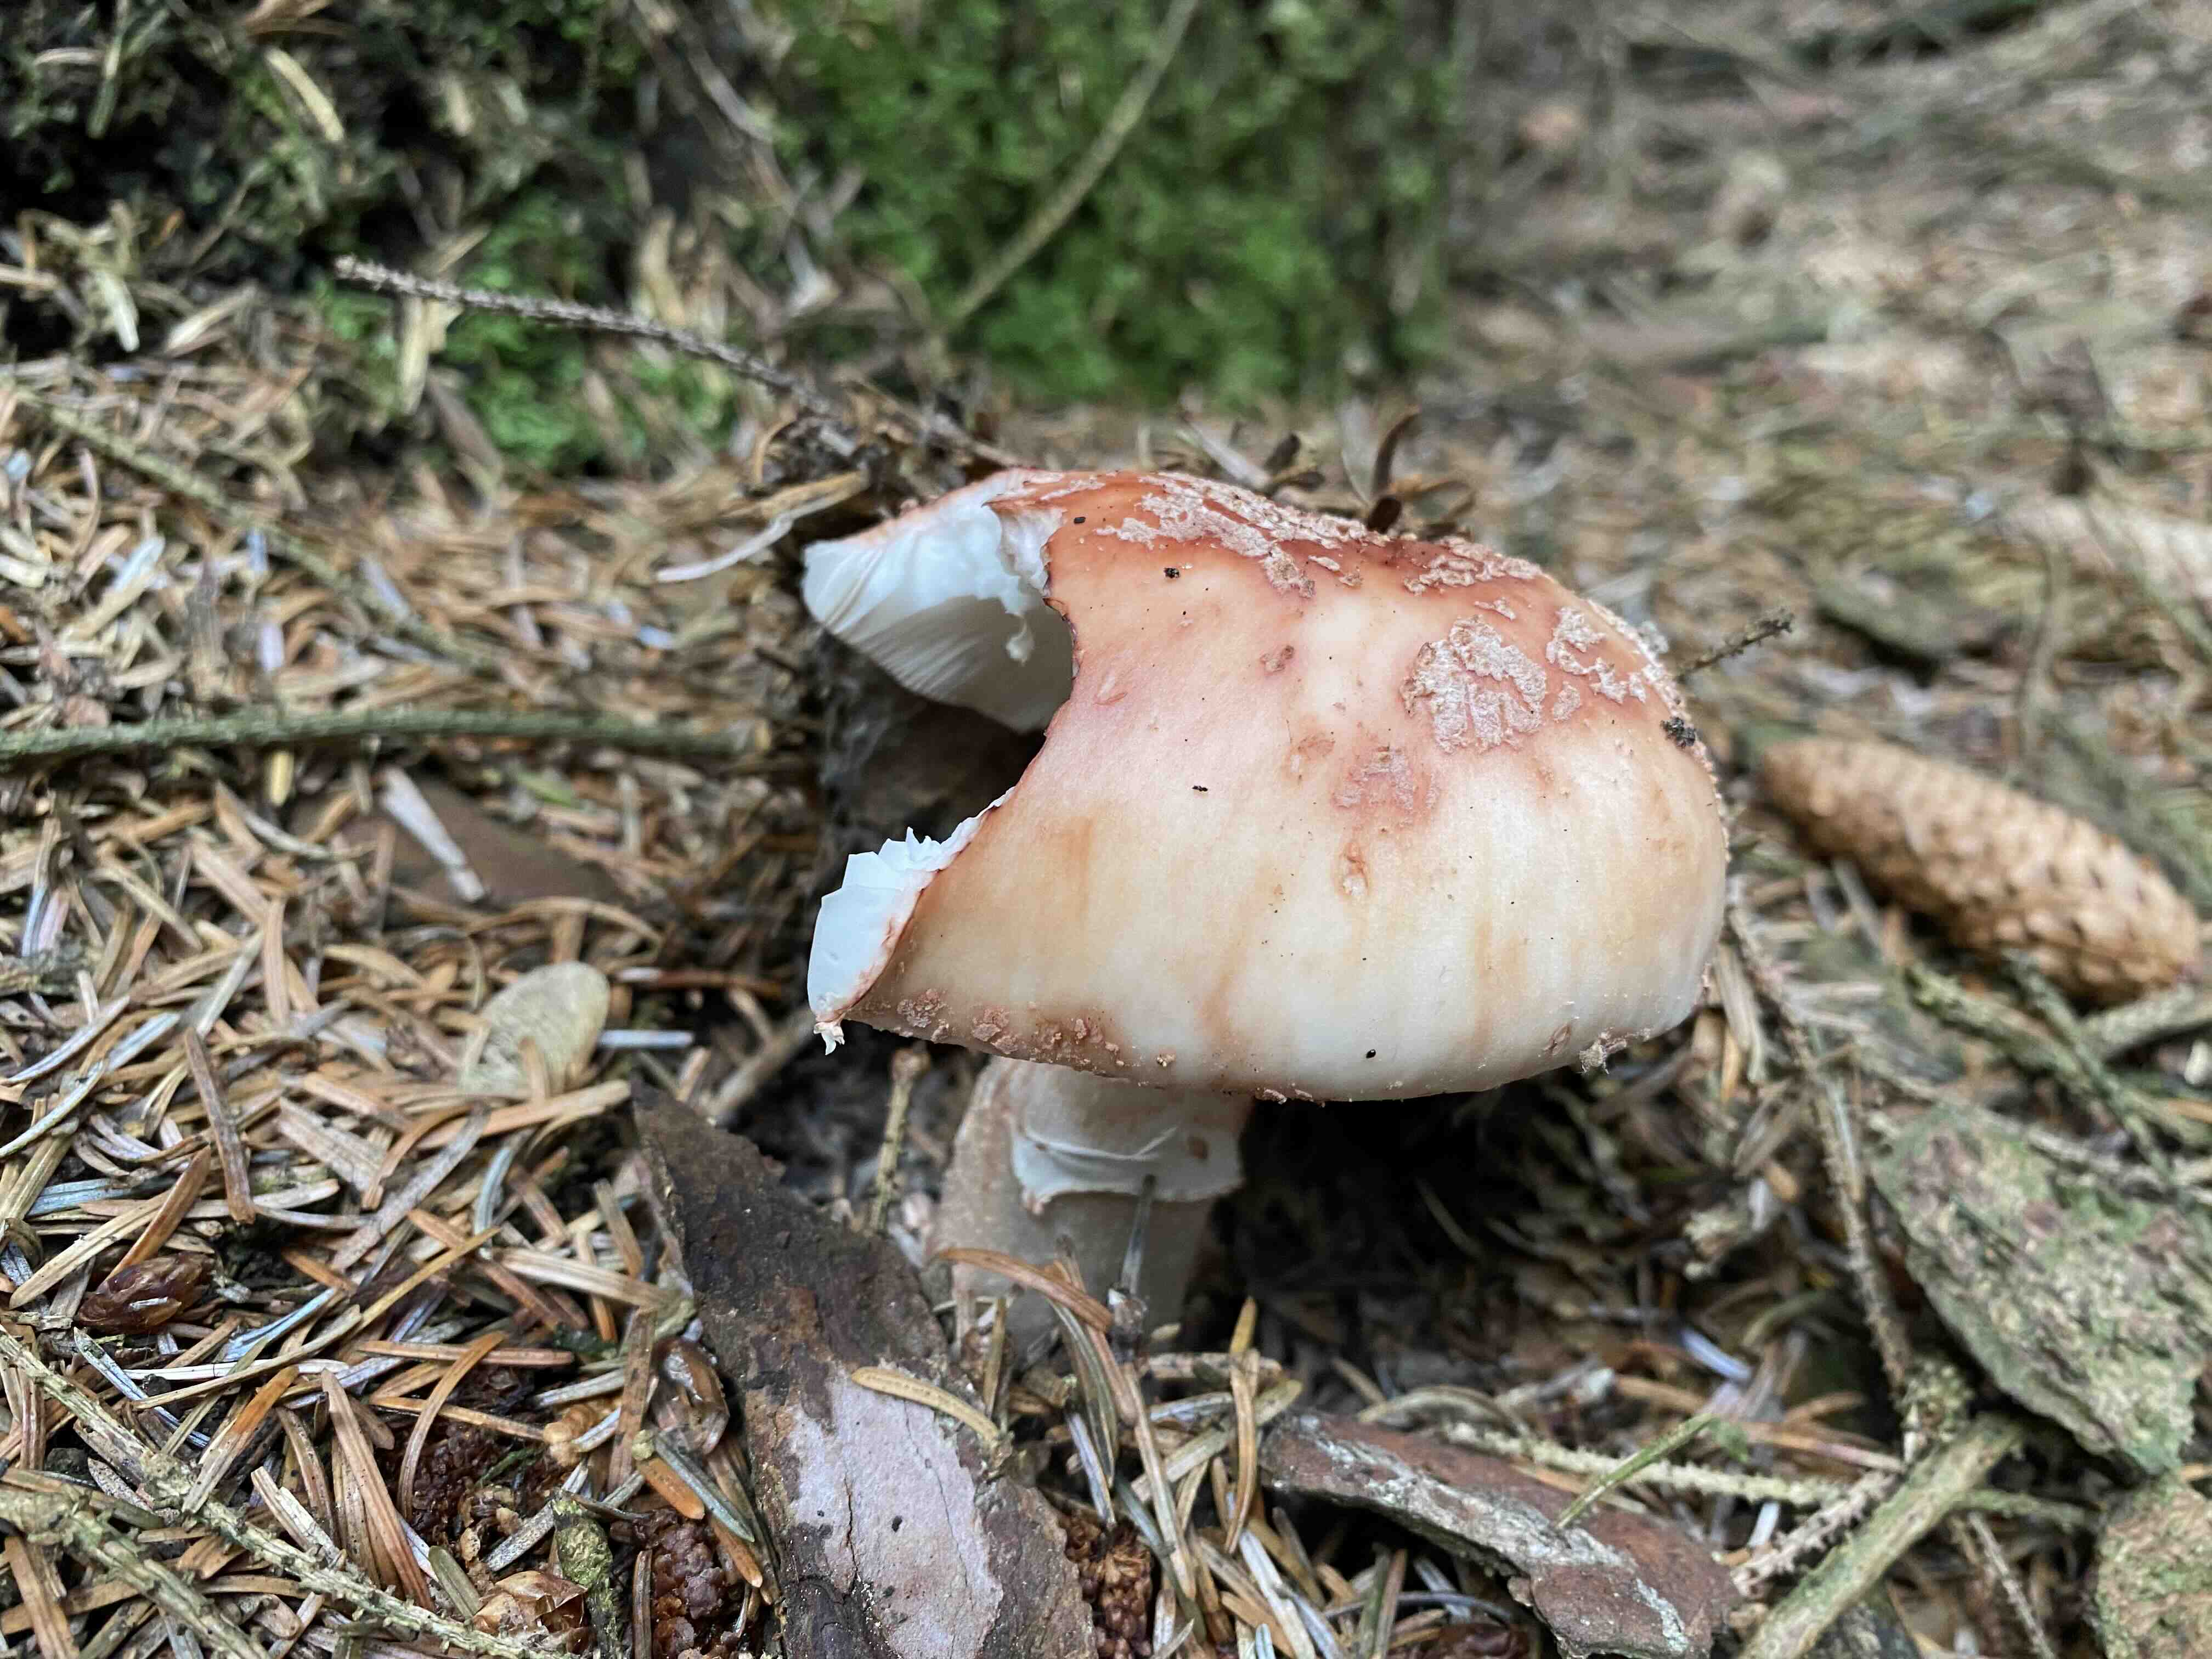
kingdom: Fungi
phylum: Basidiomycota
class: Agaricomycetes
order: Agaricales
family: Amanitaceae
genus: Amanita
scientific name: Amanita rubescens
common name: rødmende fluesvamp
